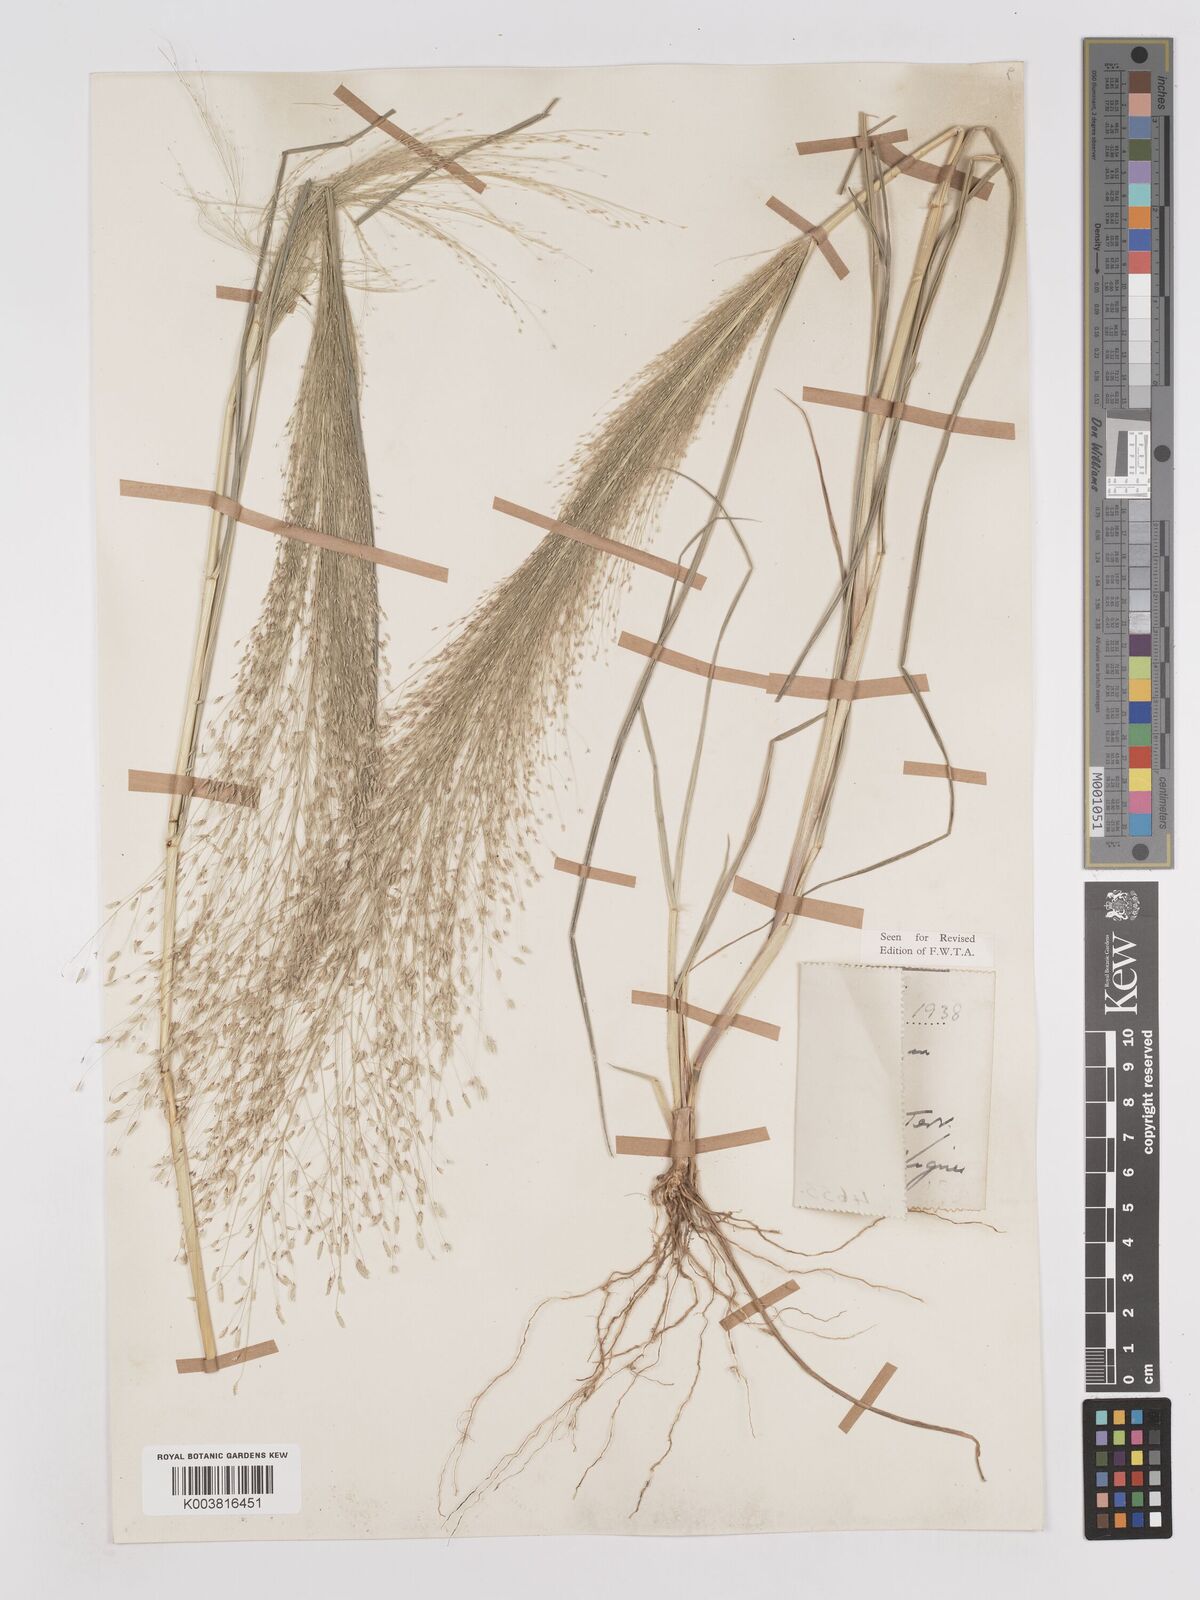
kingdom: Plantae
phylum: Tracheophyta
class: Liliopsida
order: Poales
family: Poaceae
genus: Eragrostis
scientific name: Eragrostis aspera
